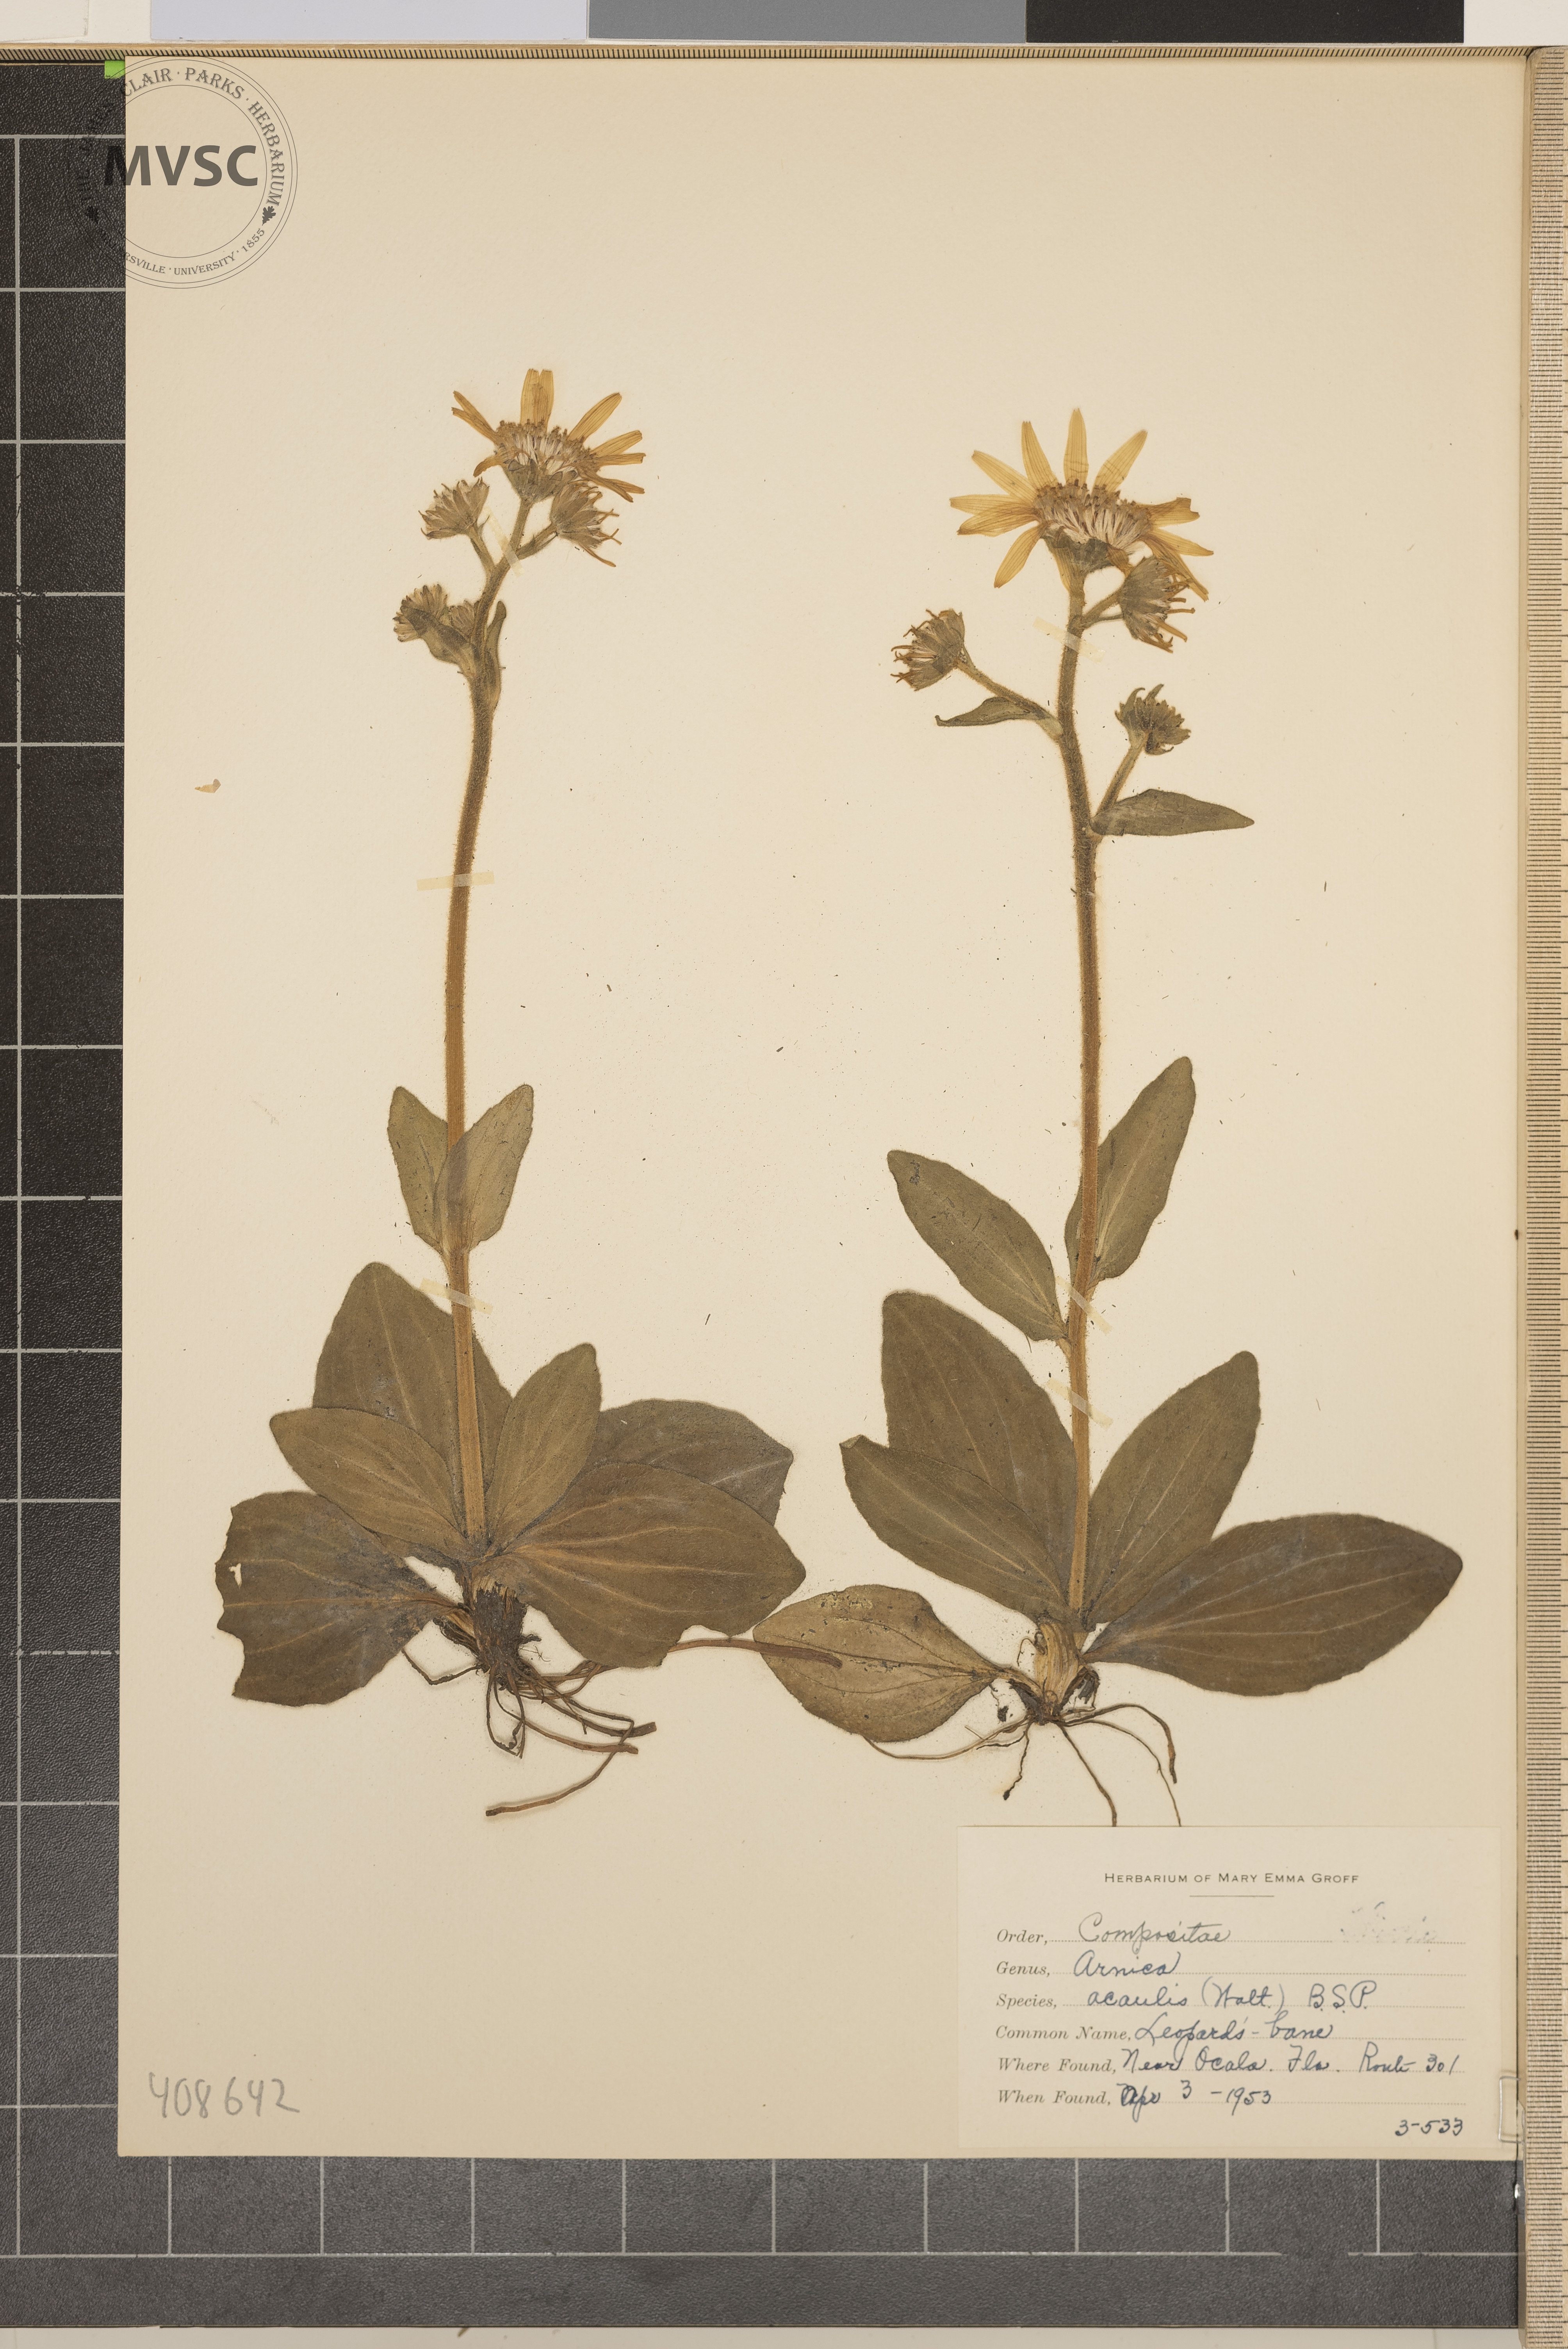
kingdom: Plantae
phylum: Tracheophyta
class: Magnoliopsida
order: Asterales
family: Asteraceae
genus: Arnica
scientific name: Arnica acaulis
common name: Leopard's bane
